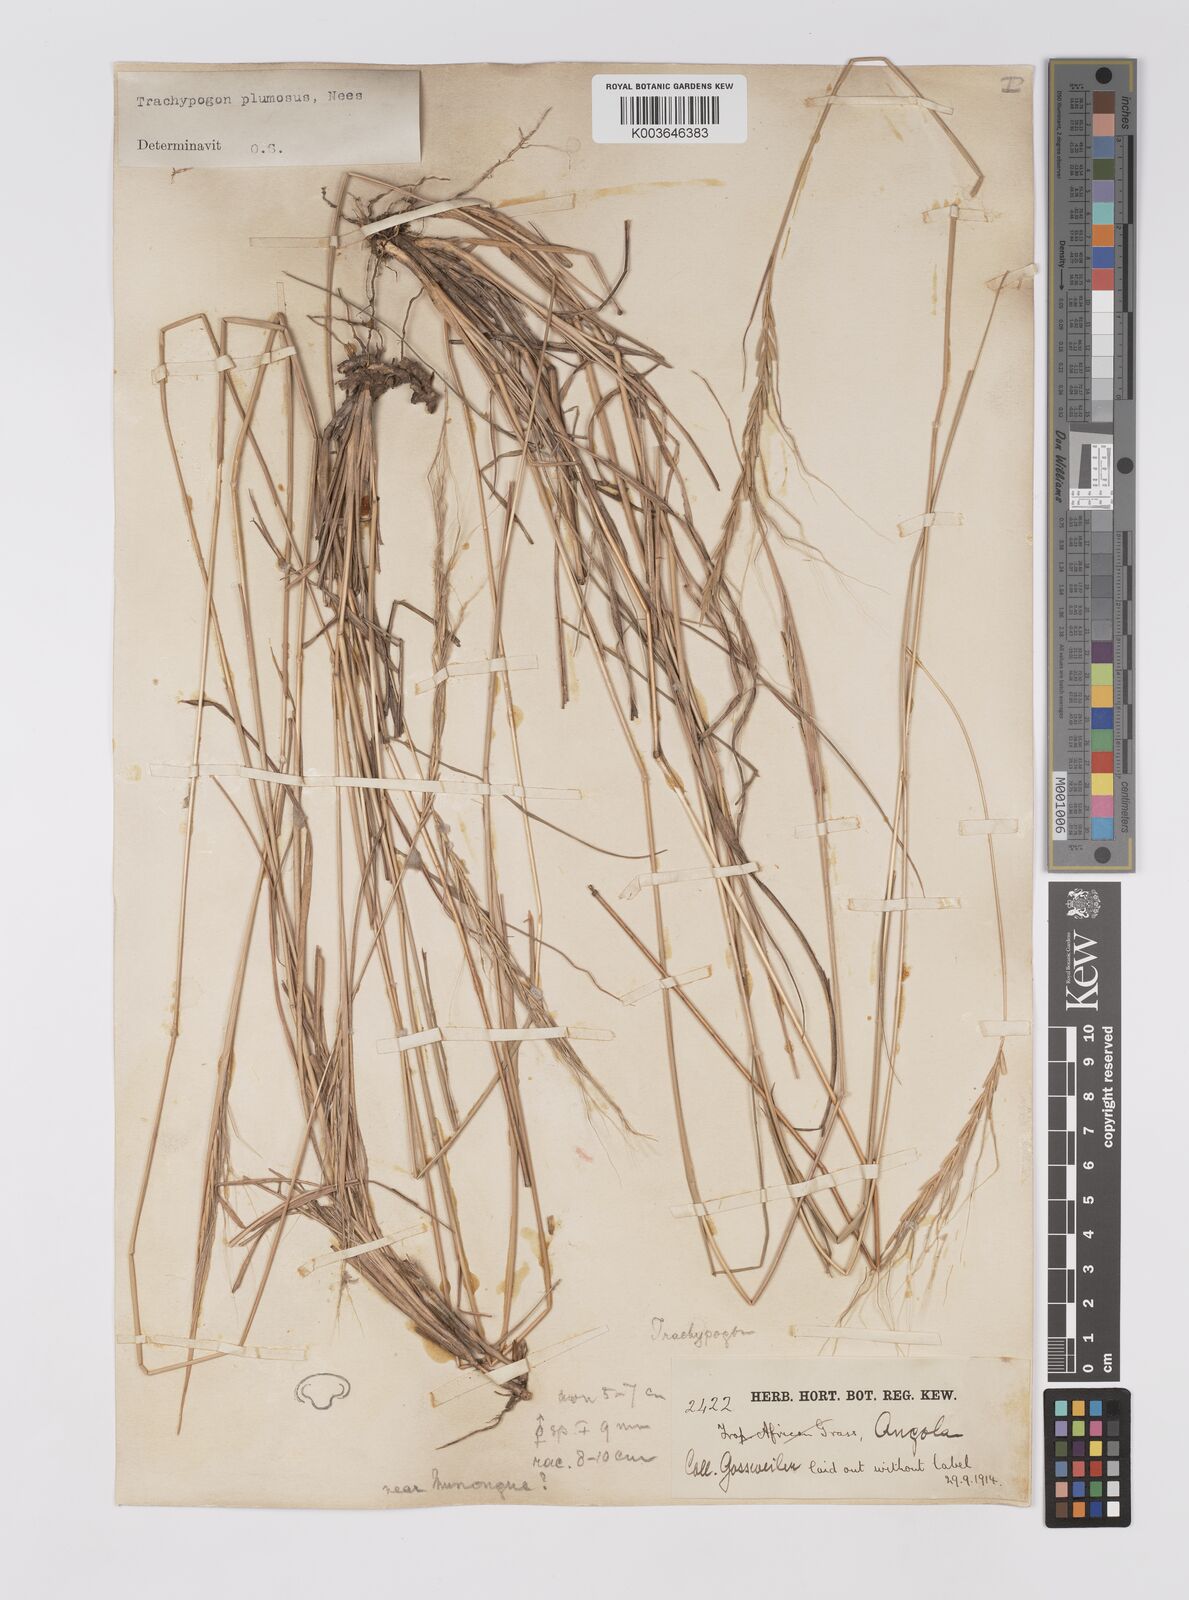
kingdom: Plantae
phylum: Tracheophyta
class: Liliopsida
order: Poales
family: Poaceae
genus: Trachypogon
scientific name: Trachypogon spicatus
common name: Crinkle-awn
